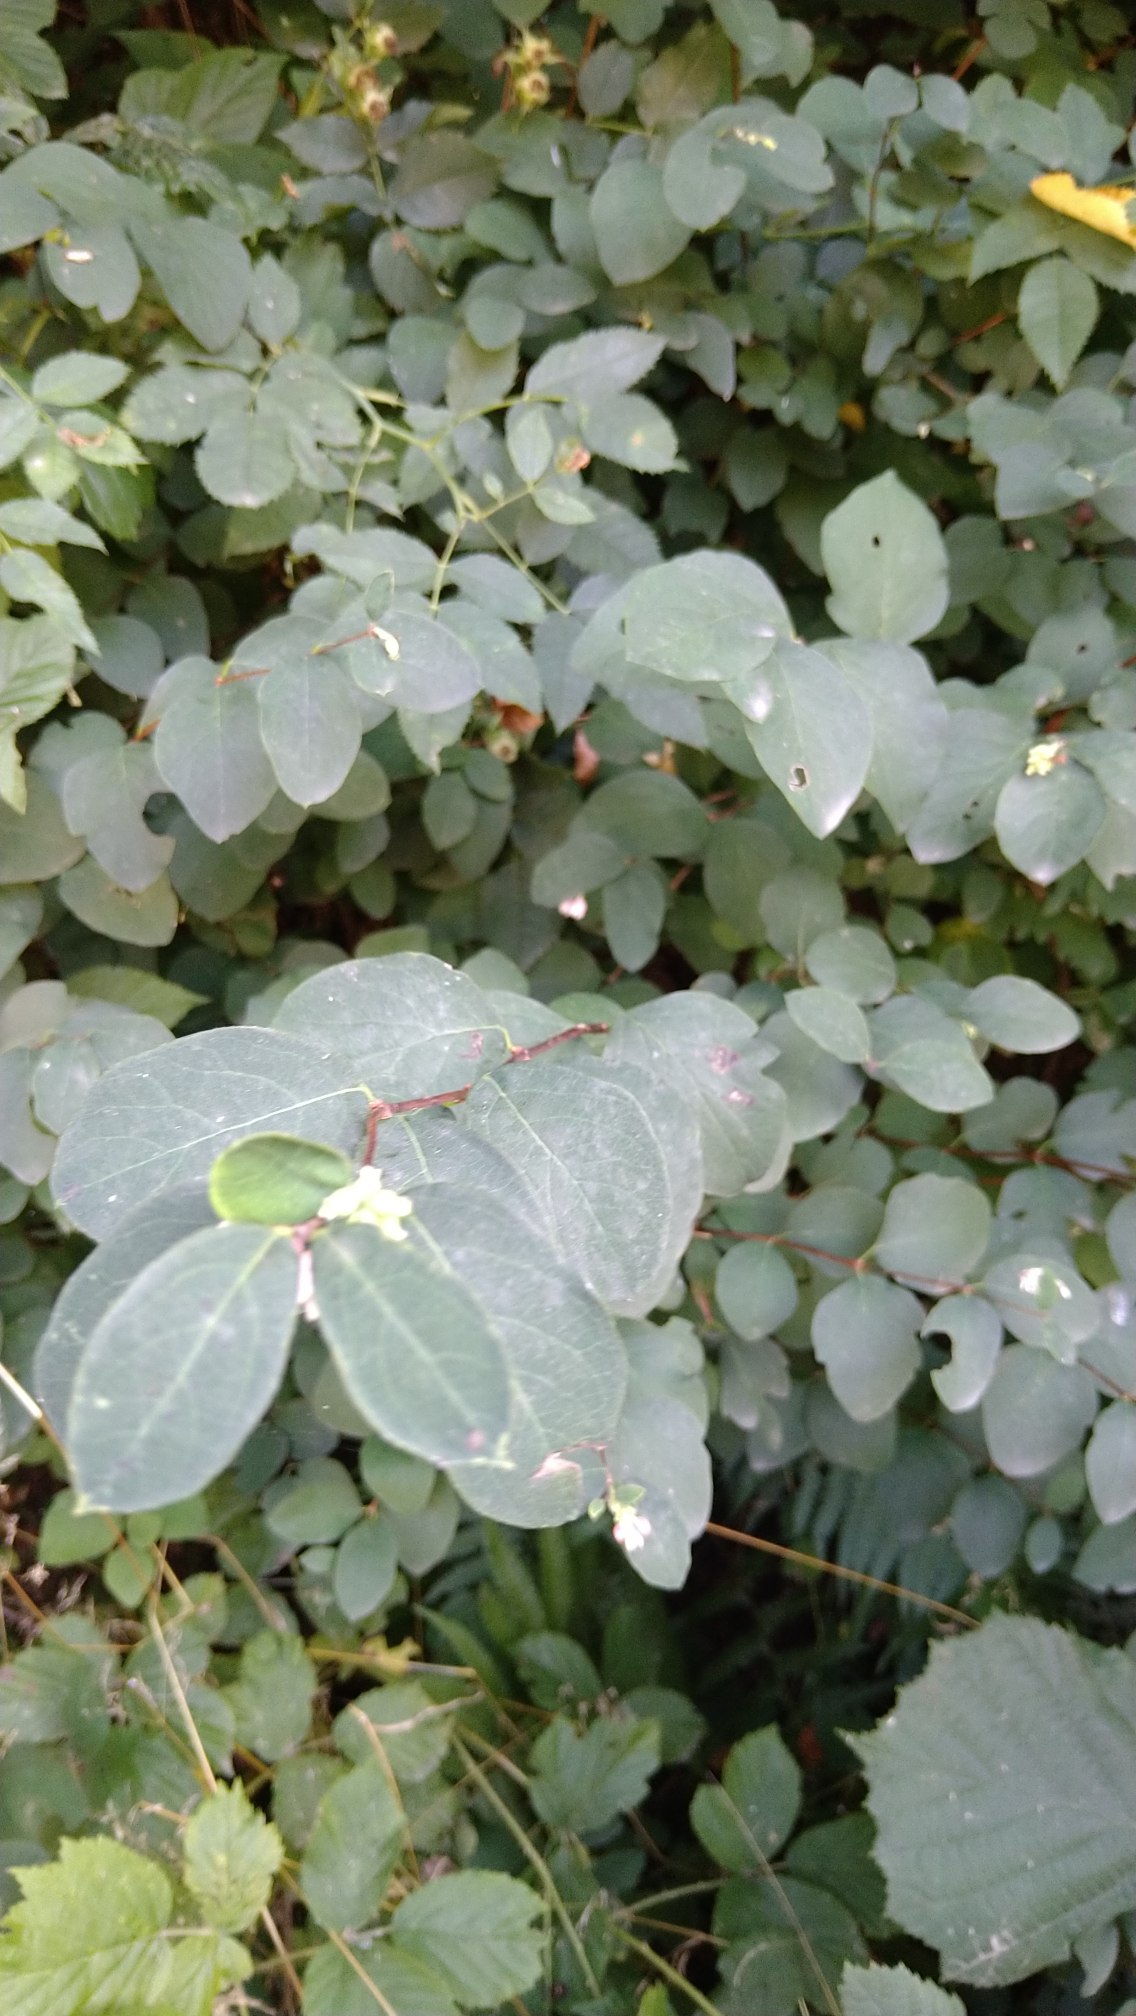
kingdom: Plantae
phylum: Tracheophyta
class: Magnoliopsida
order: Dipsacales
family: Caprifoliaceae
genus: Symphoricarpos
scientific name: Symphoricarpos albus
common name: Almindelig snebær
